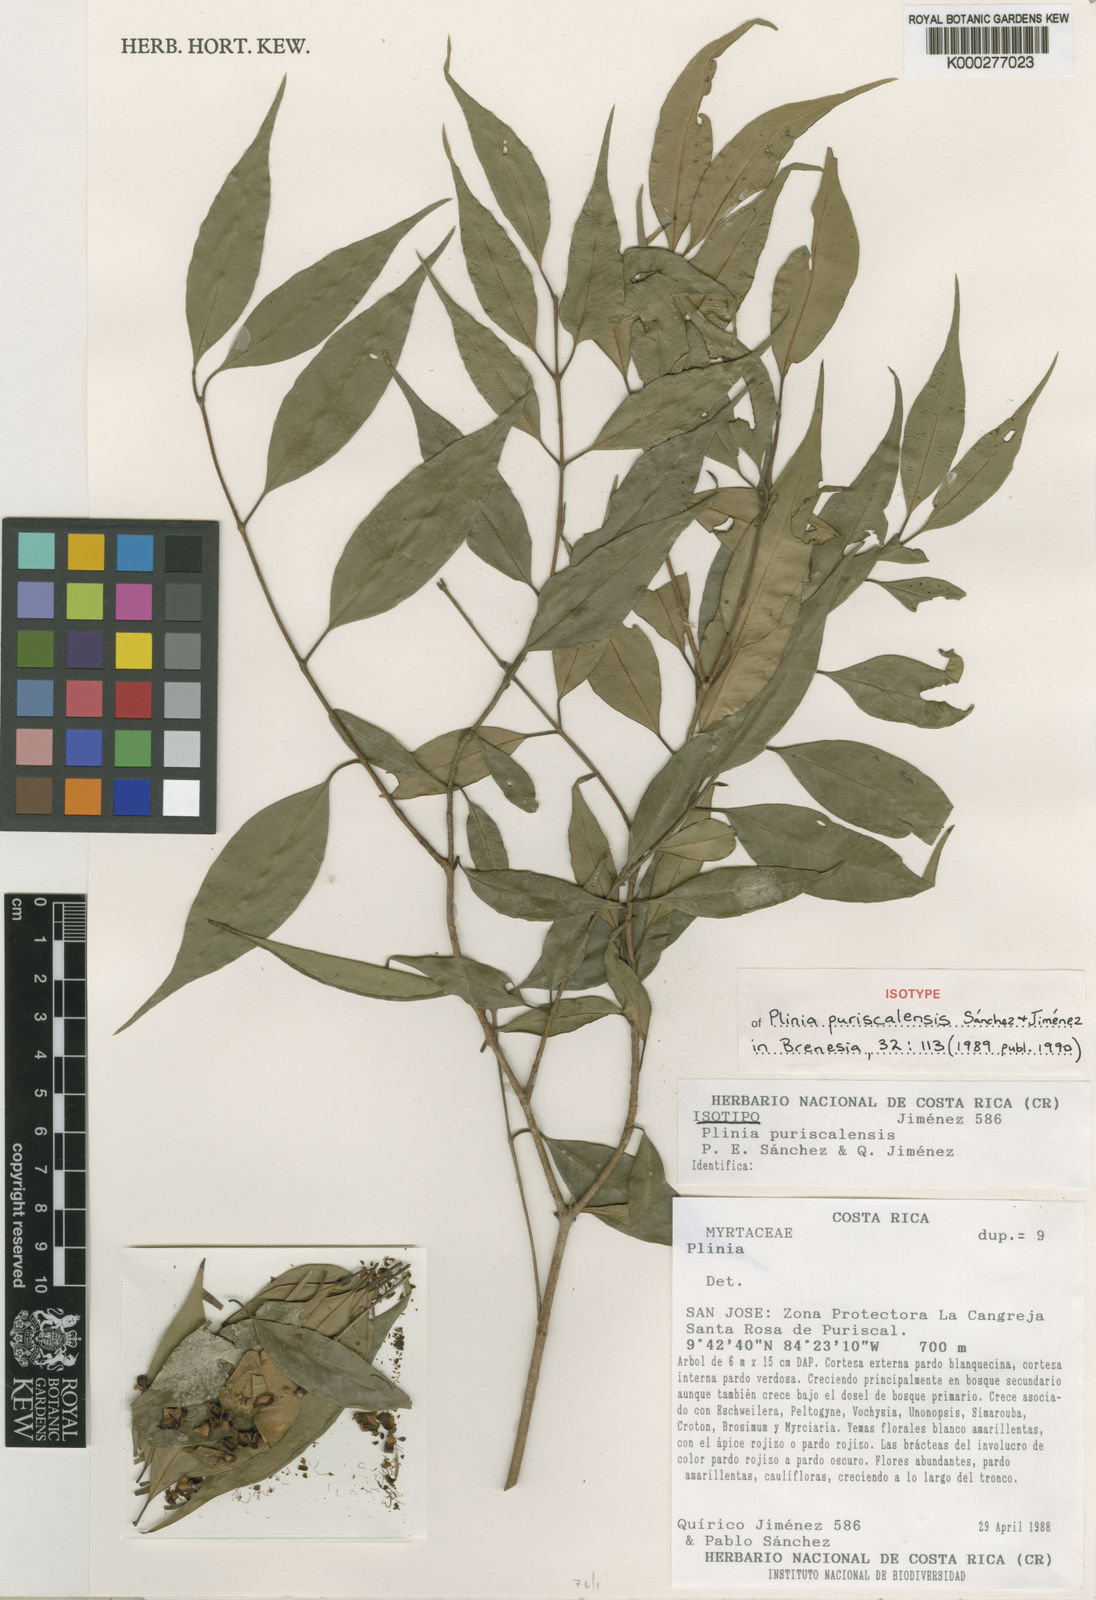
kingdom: Plantae
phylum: Tracheophyta
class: Magnoliopsida
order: Myrtales
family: Myrtaceae
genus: Plinia
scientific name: Plinia
